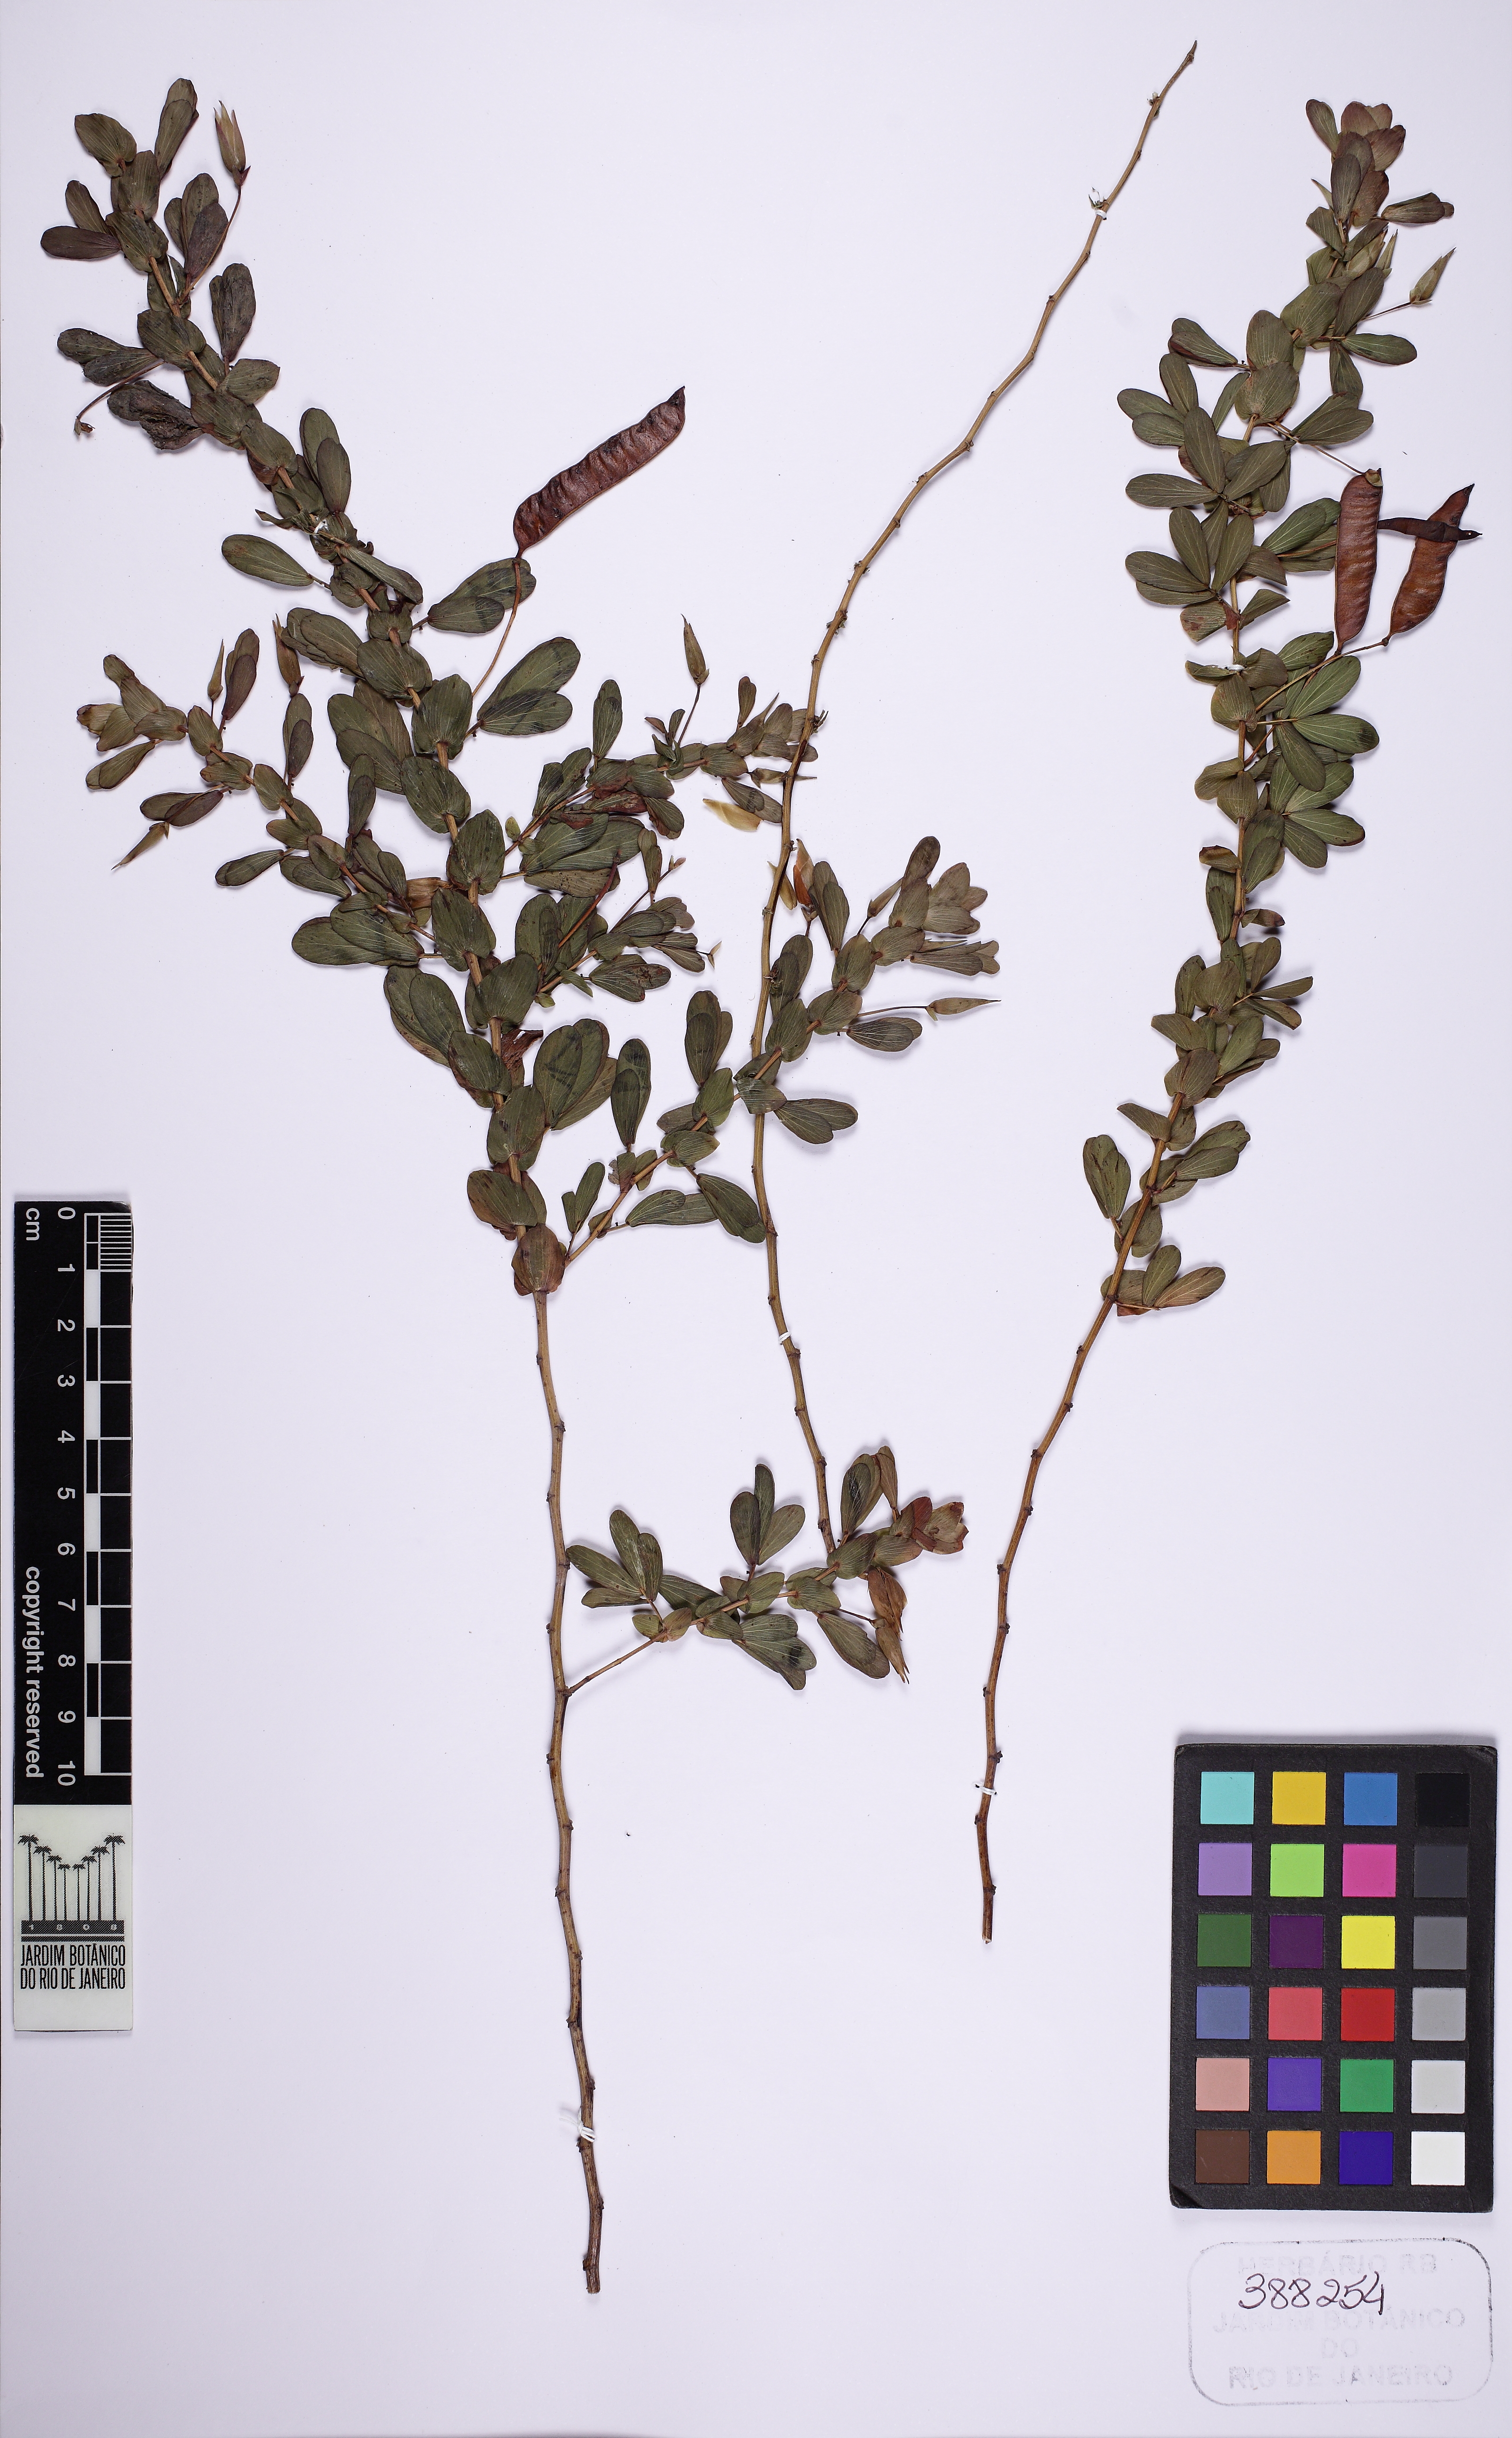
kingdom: Plantae
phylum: Tracheophyta
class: Magnoliopsida
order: Fabales
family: Fabaceae
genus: Chamaecrista
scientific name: Chamaecrista desvauxii
